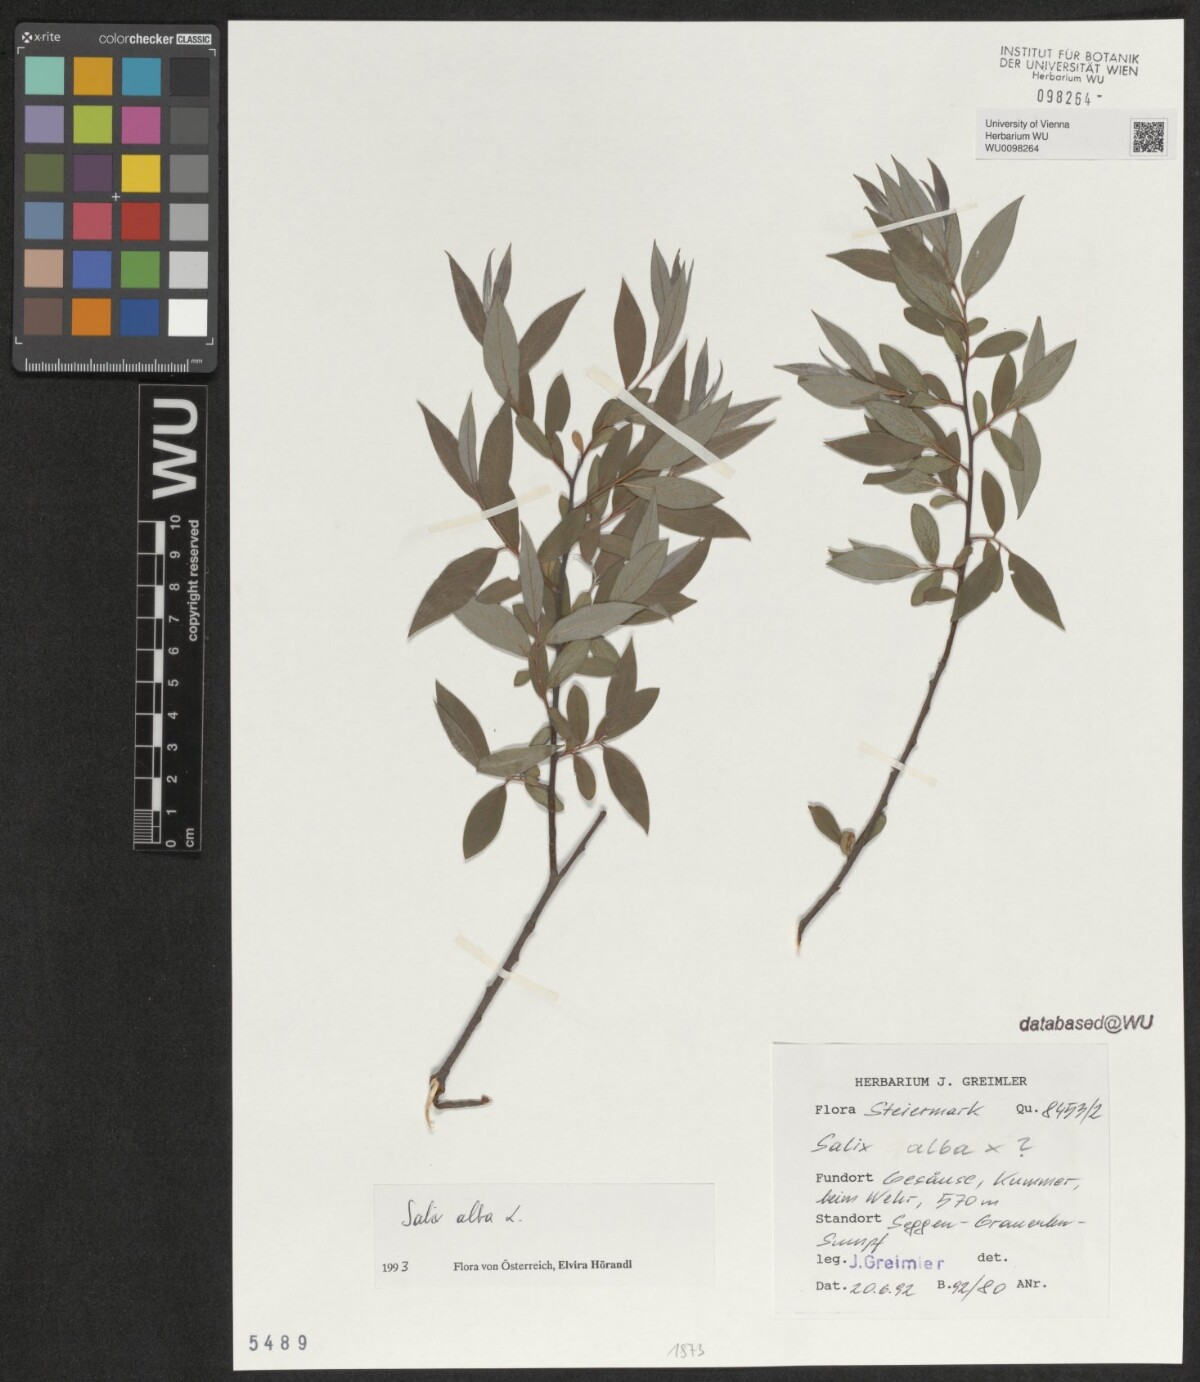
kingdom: Plantae
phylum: Tracheophyta
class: Magnoliopsida
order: Malpighiales
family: Salicaceae
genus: Salix
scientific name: Salix alba
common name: White willow
